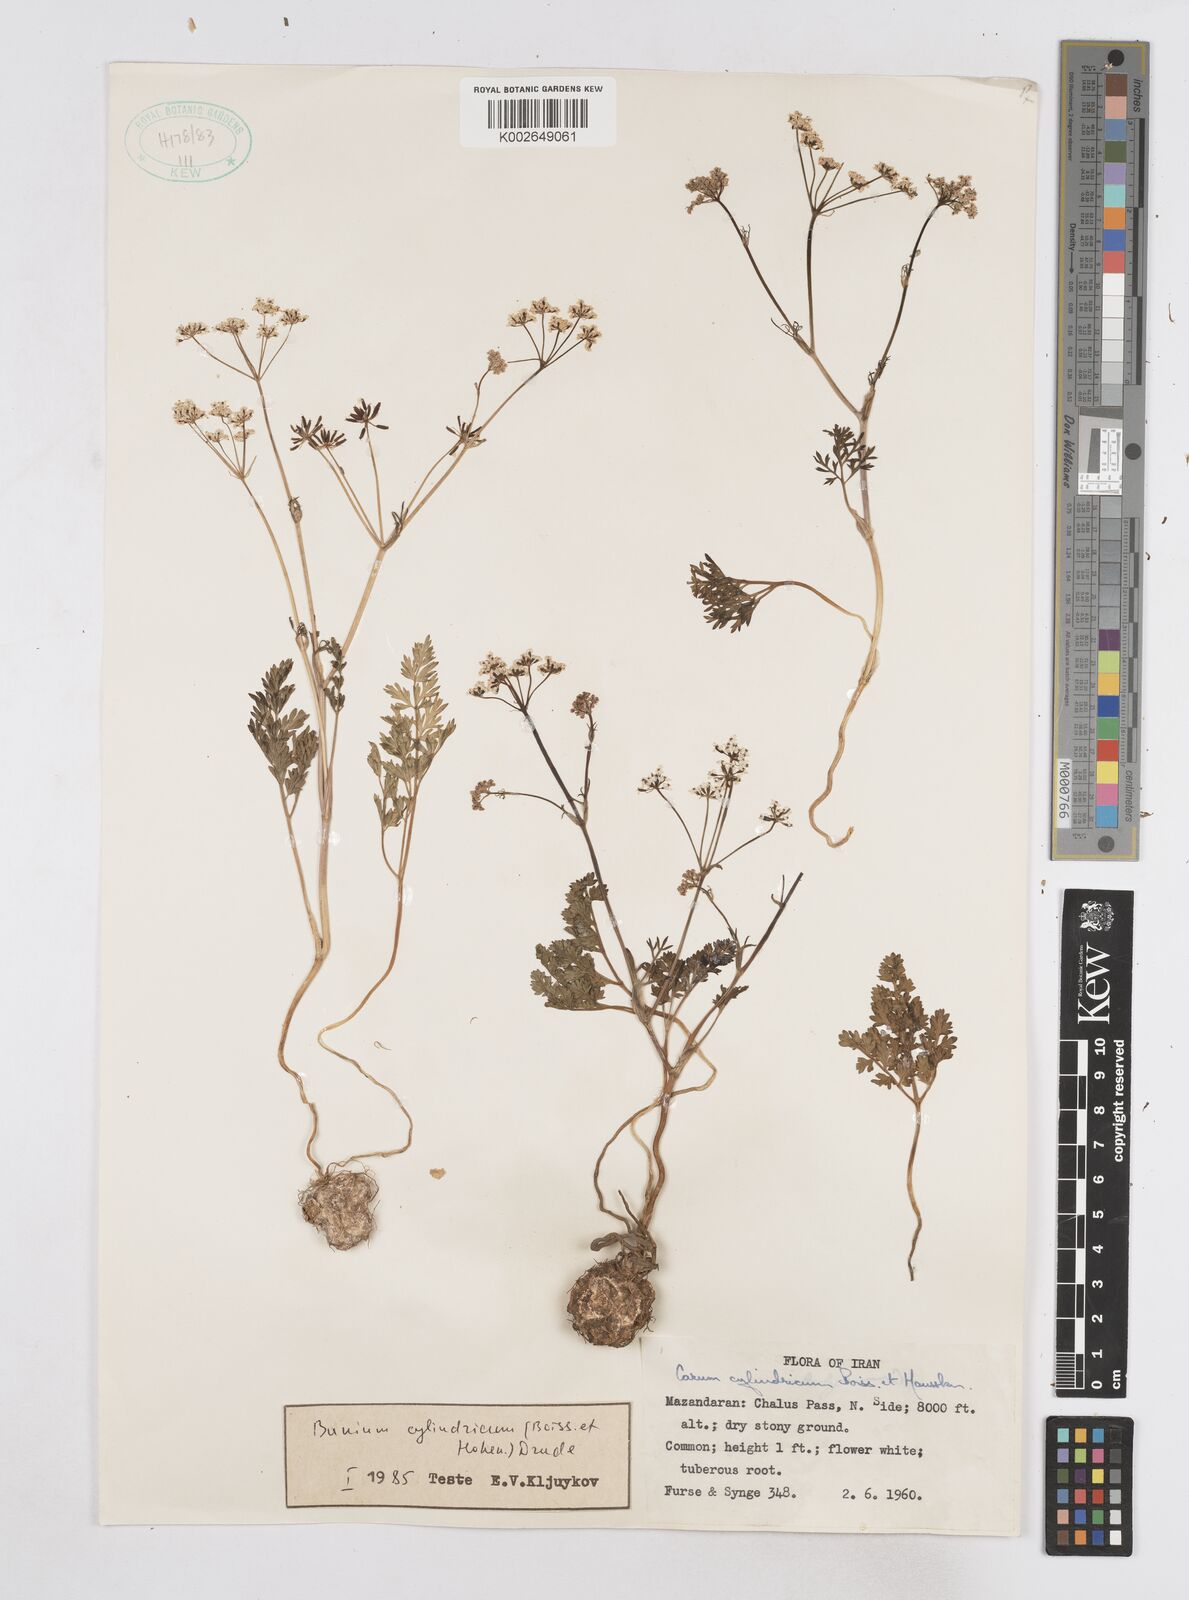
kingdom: Plantae
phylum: Tracheophyta
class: Magnoliopsida
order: Apiales
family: Apiaceae
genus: Elwendia
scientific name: Elwendia cylindrica
